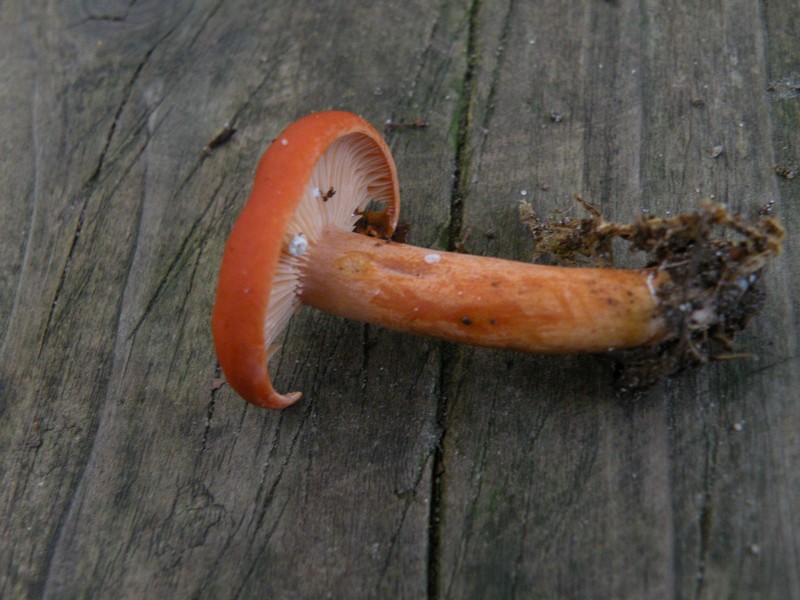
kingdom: Fungi
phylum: Basidiomycota
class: Agaricomycetes
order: Russulales
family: Russulaceae
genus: Lactarius
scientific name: Lactarius aurantiacus
